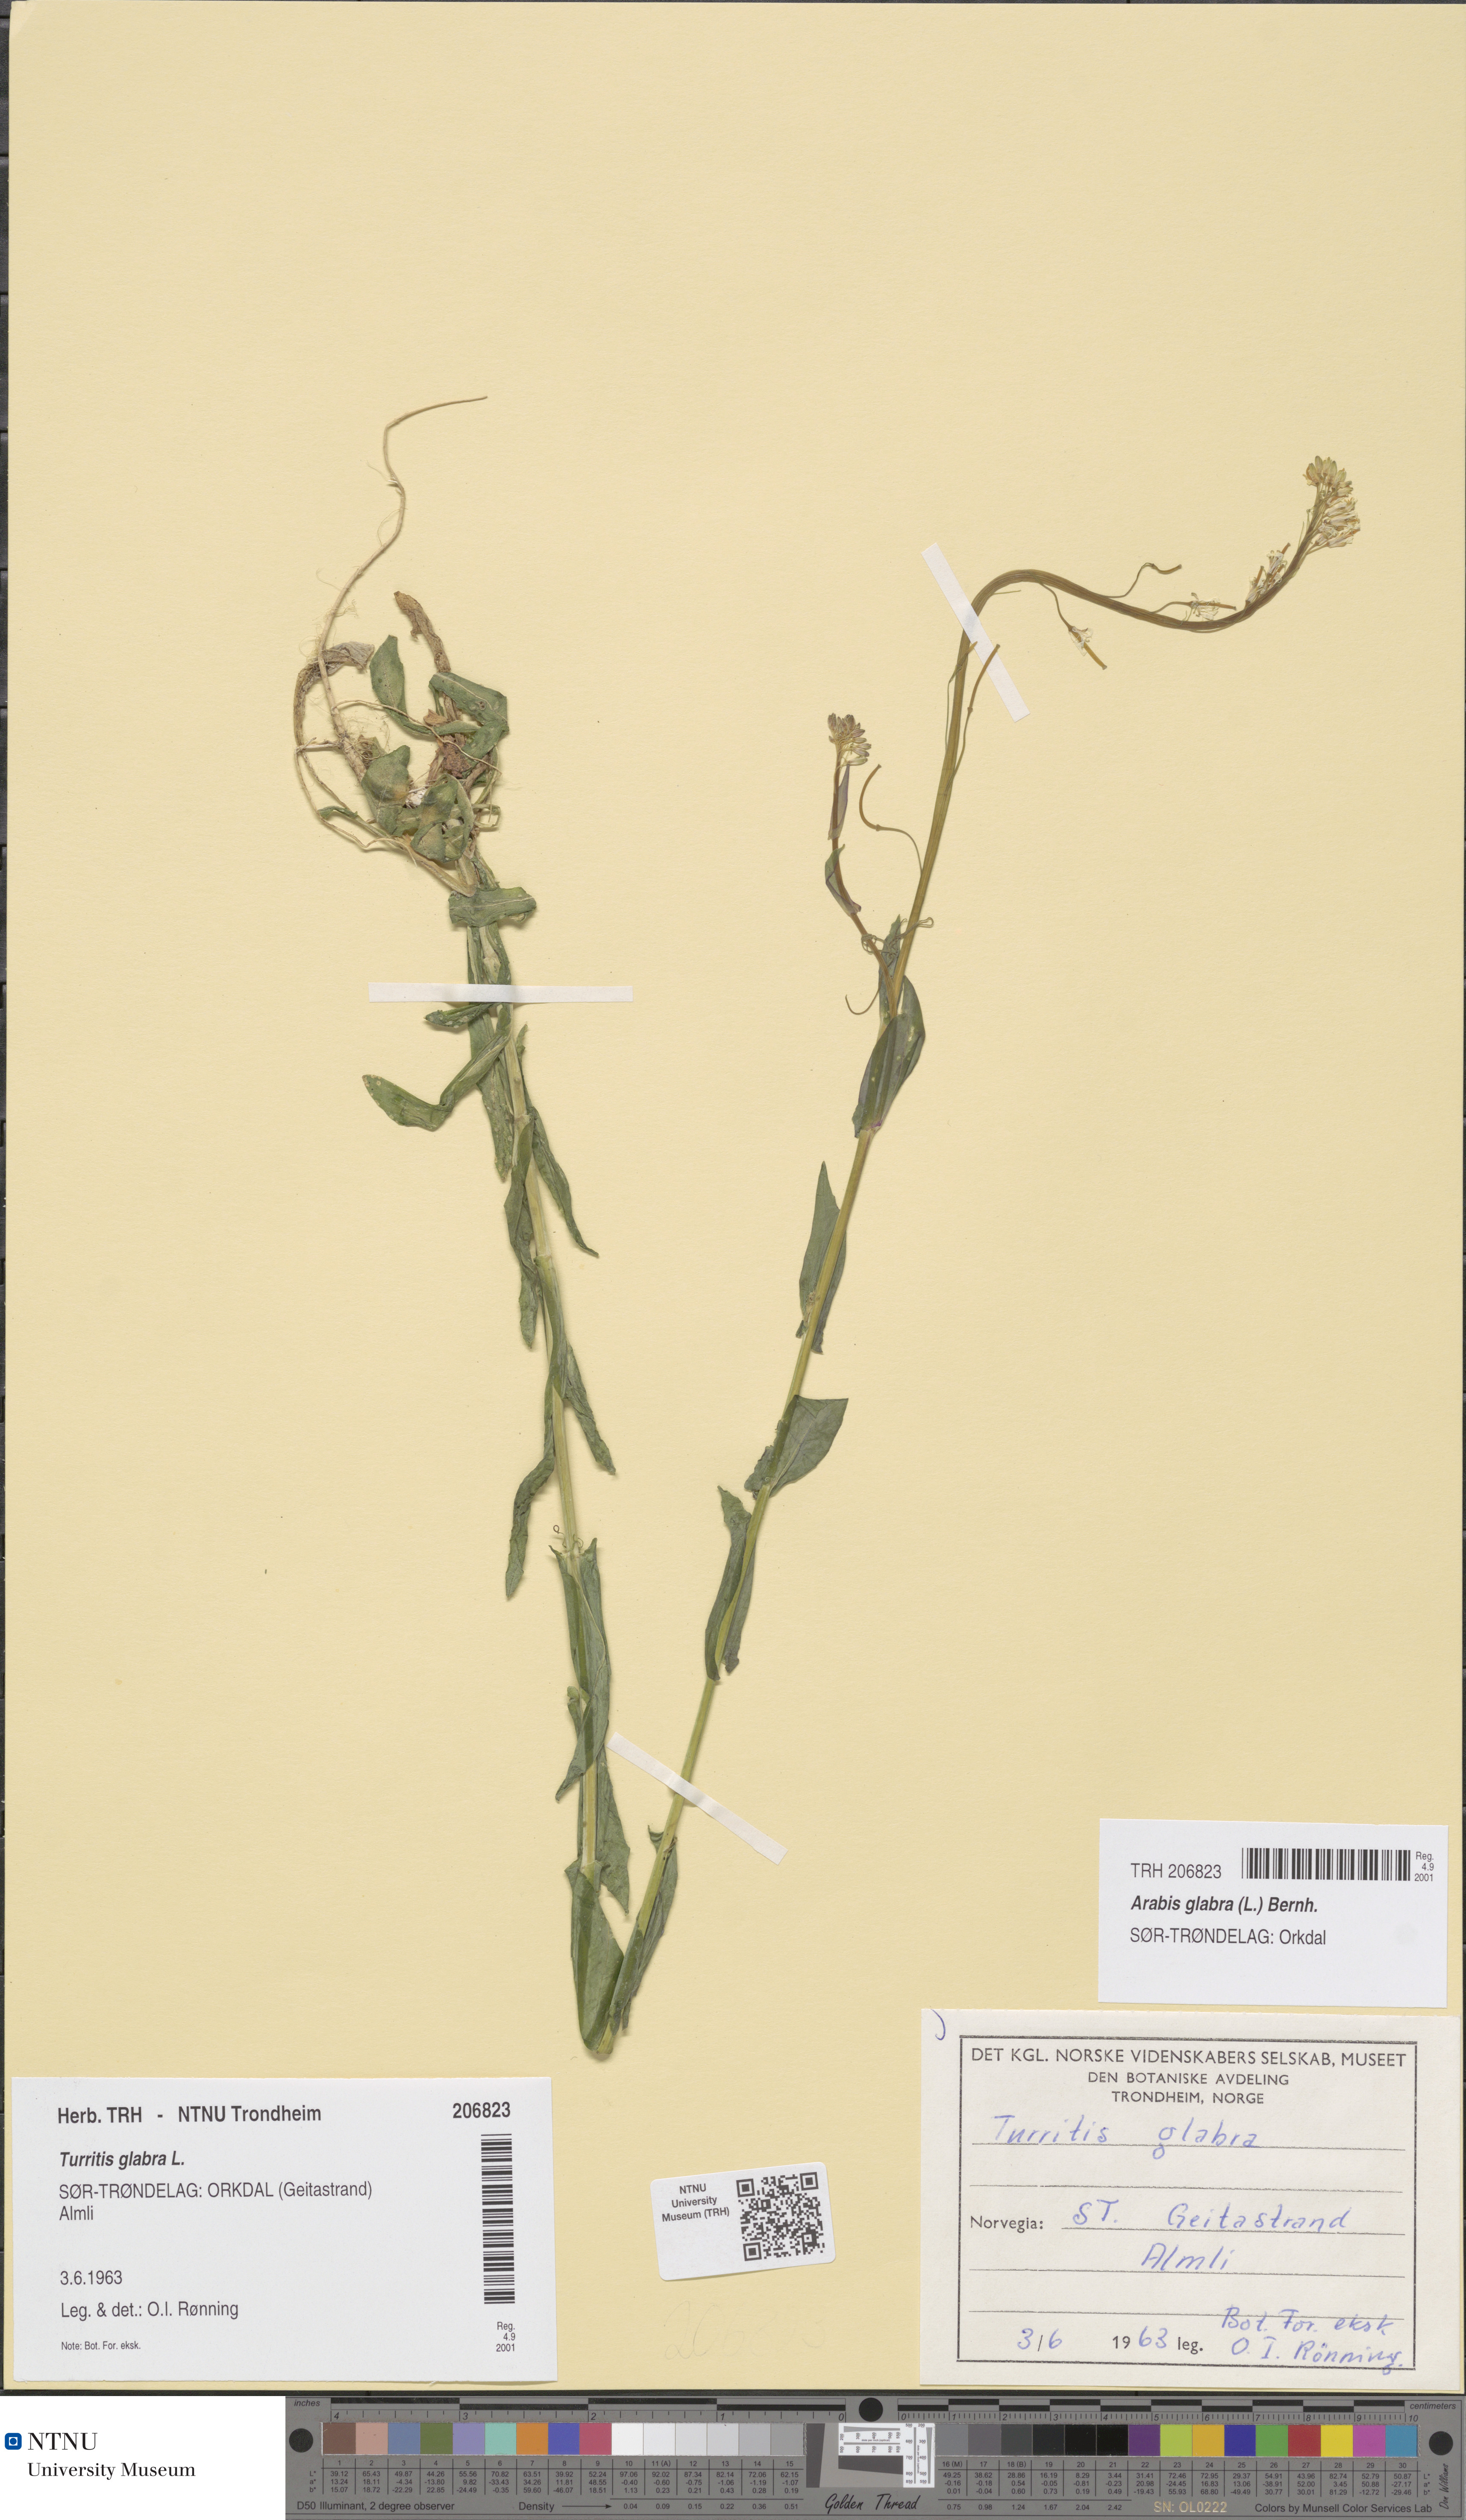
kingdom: Plantae
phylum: Tracheophyta
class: Magnoliopsida
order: Brassicales
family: Brassicaceae
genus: Turritis
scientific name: Turritis glabra
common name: Tower rockcress
